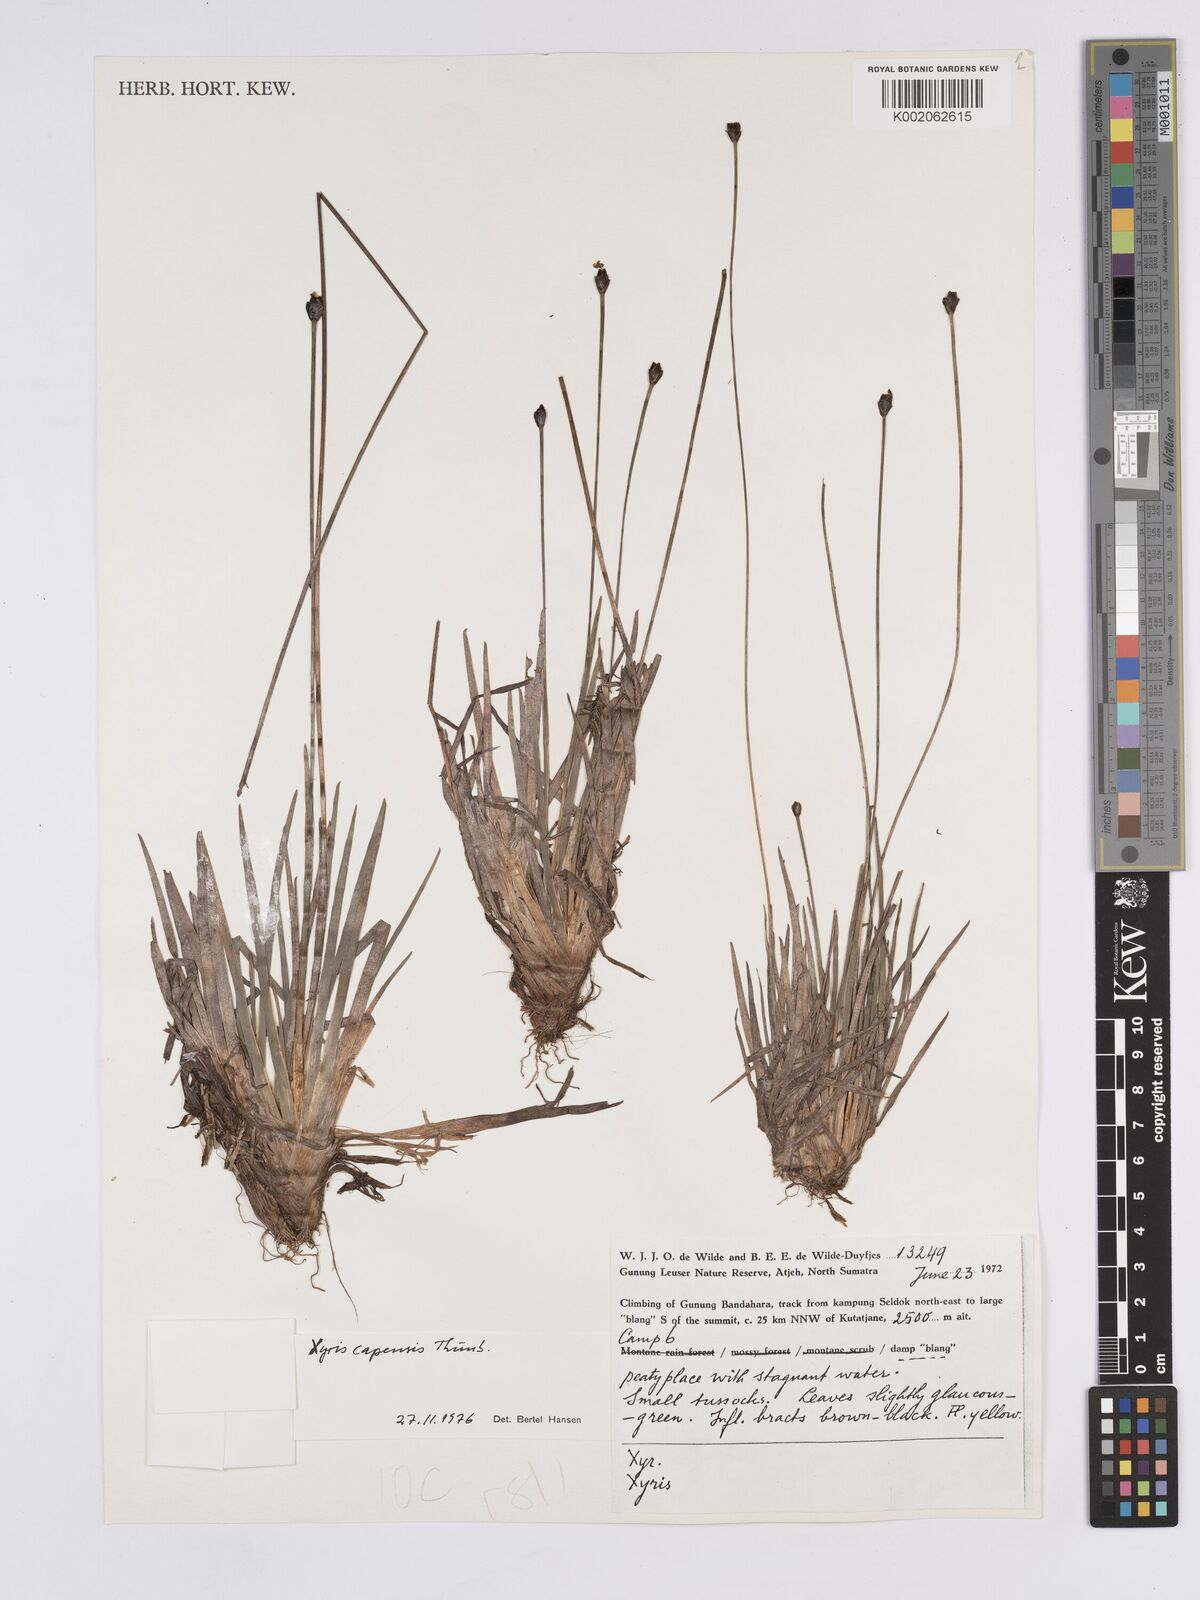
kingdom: Plantae
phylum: Tracheophyta
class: Liliopsida
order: Poales
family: Xyridaceae
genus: Xyris
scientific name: Xyris capensis
